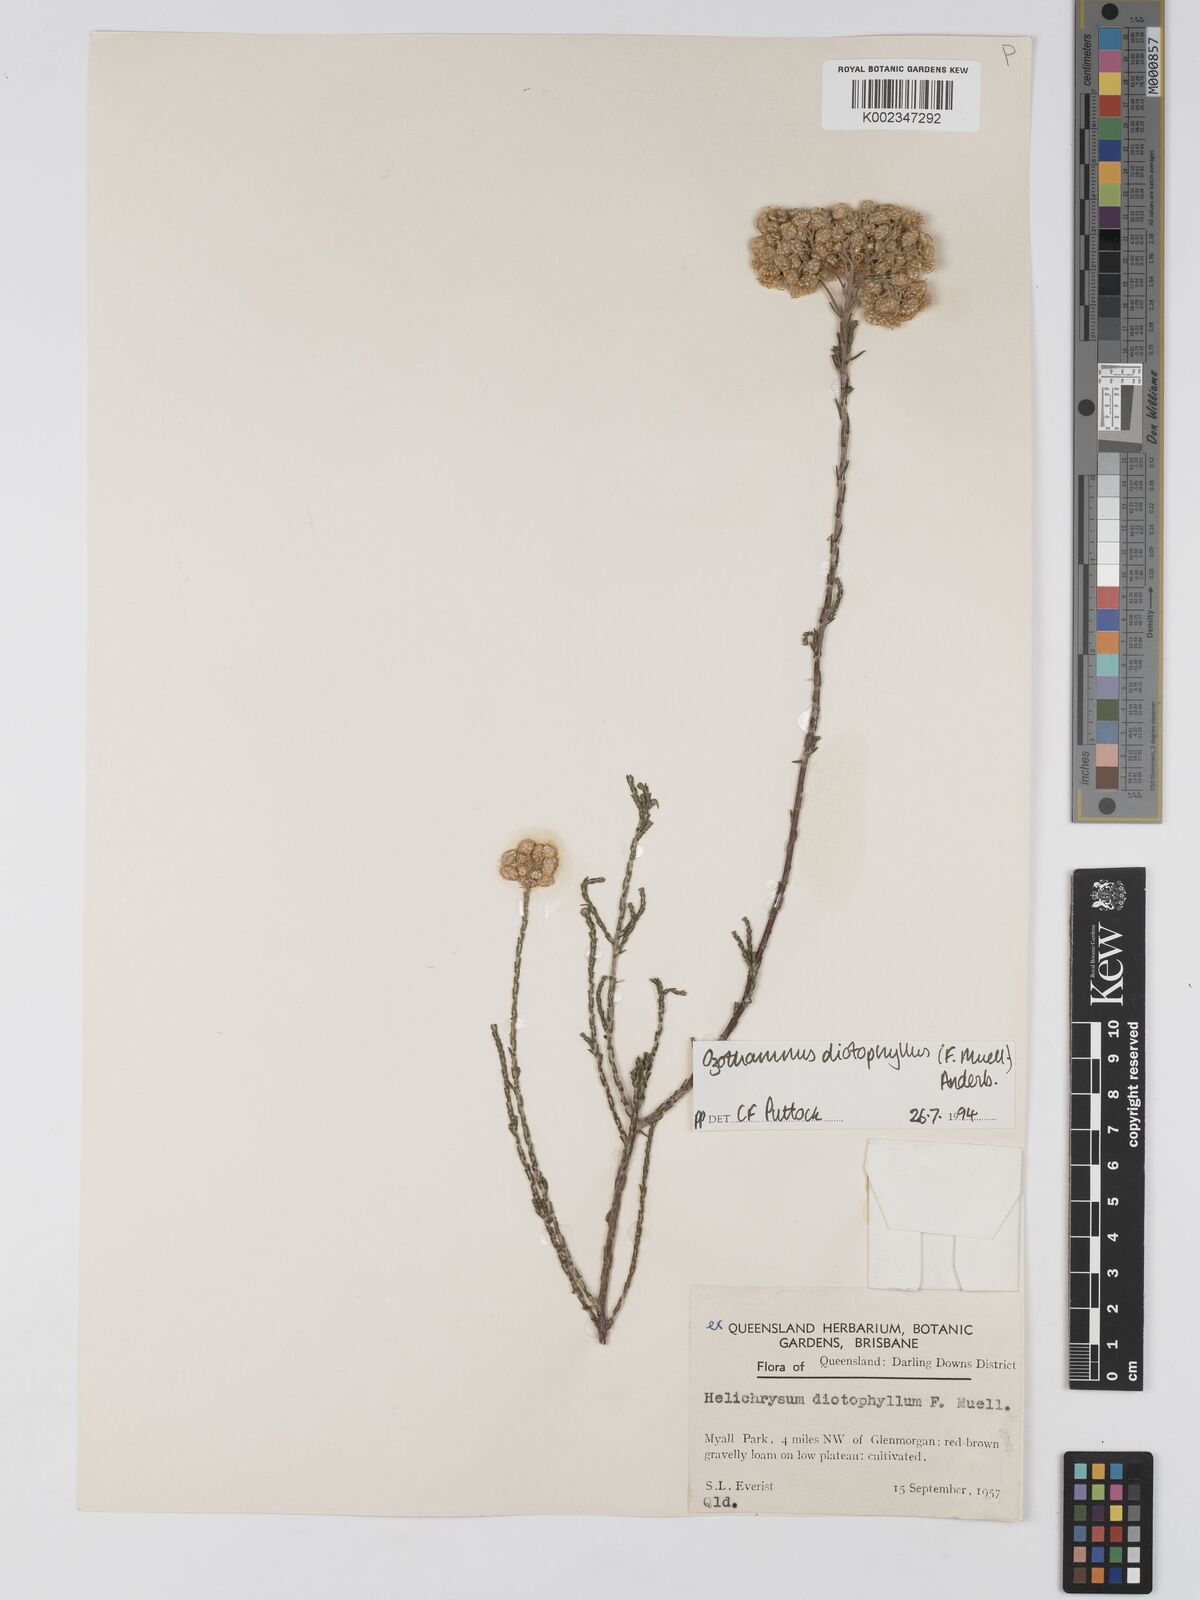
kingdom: Plantae
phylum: Tracheophyta
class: Magnoliopsida
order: Asterales
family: Asteraceae
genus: Ozothamnus
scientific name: Ozothamnus diotophyllus
